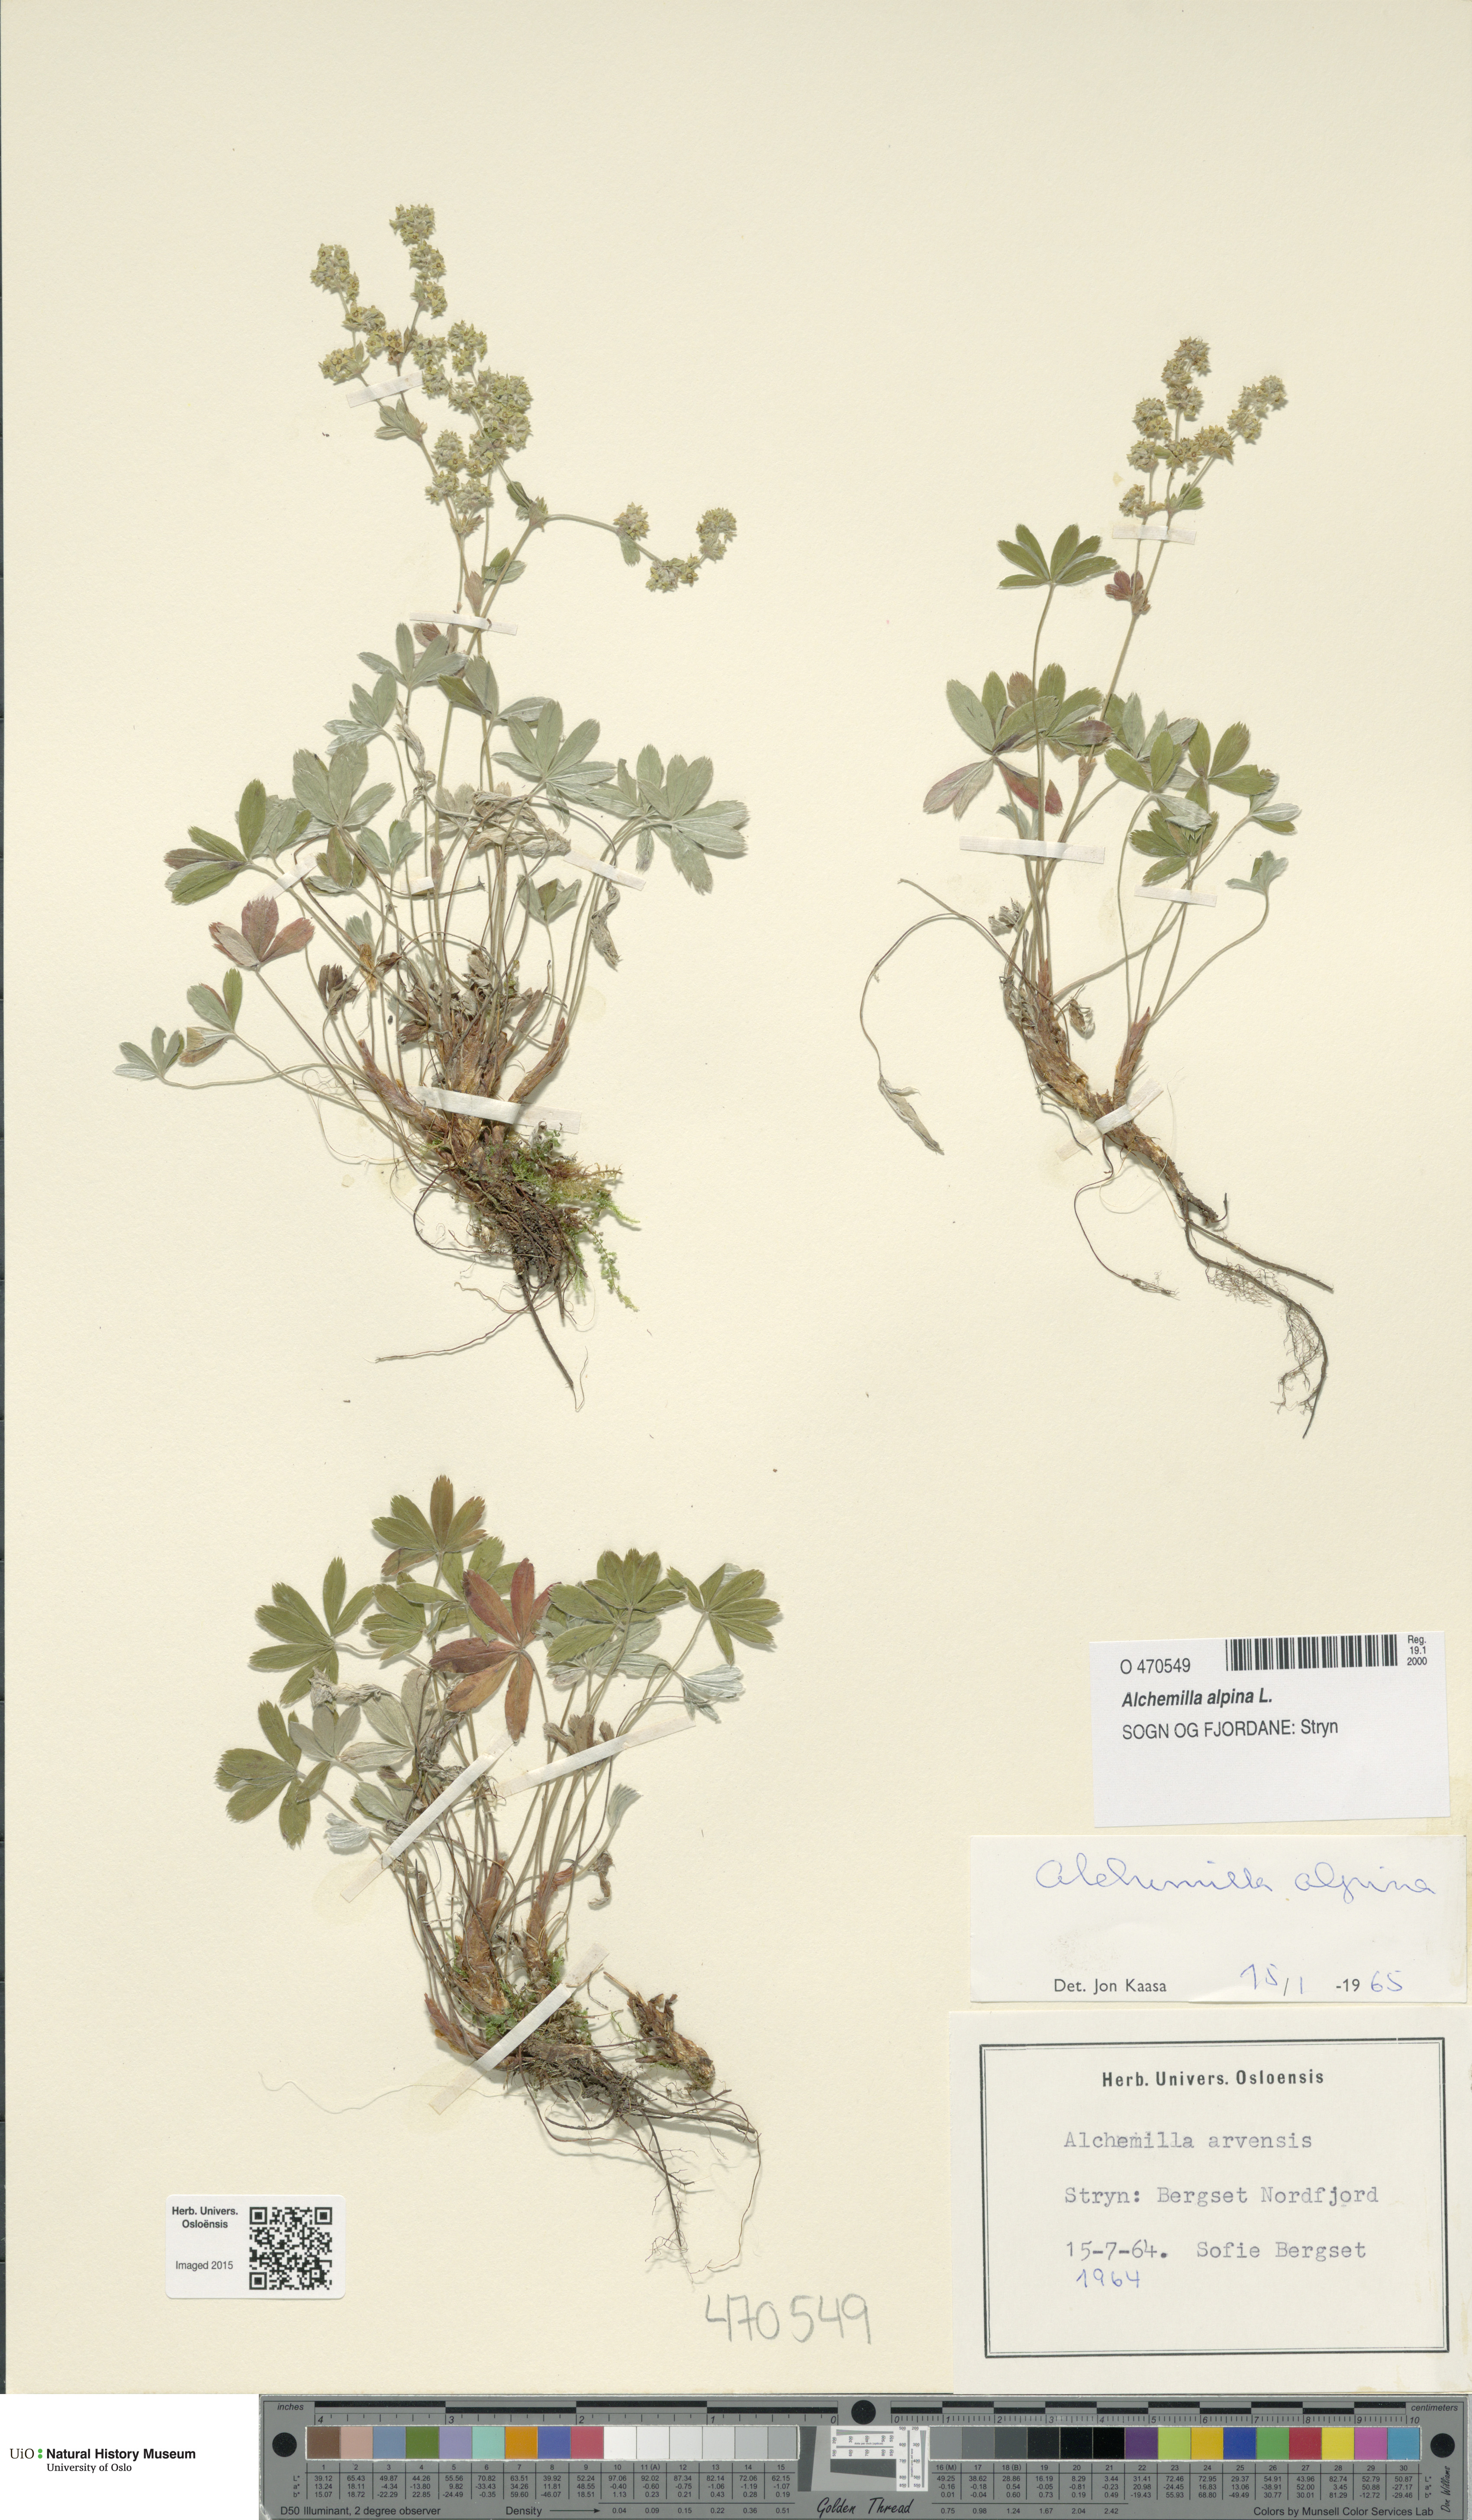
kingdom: Plantae
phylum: Tracheophyta
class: Magnoliopsida
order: Rosales
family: Rosaceae
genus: Alchemilla
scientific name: Alchemilla alpina
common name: Alpine lady's-mantle
